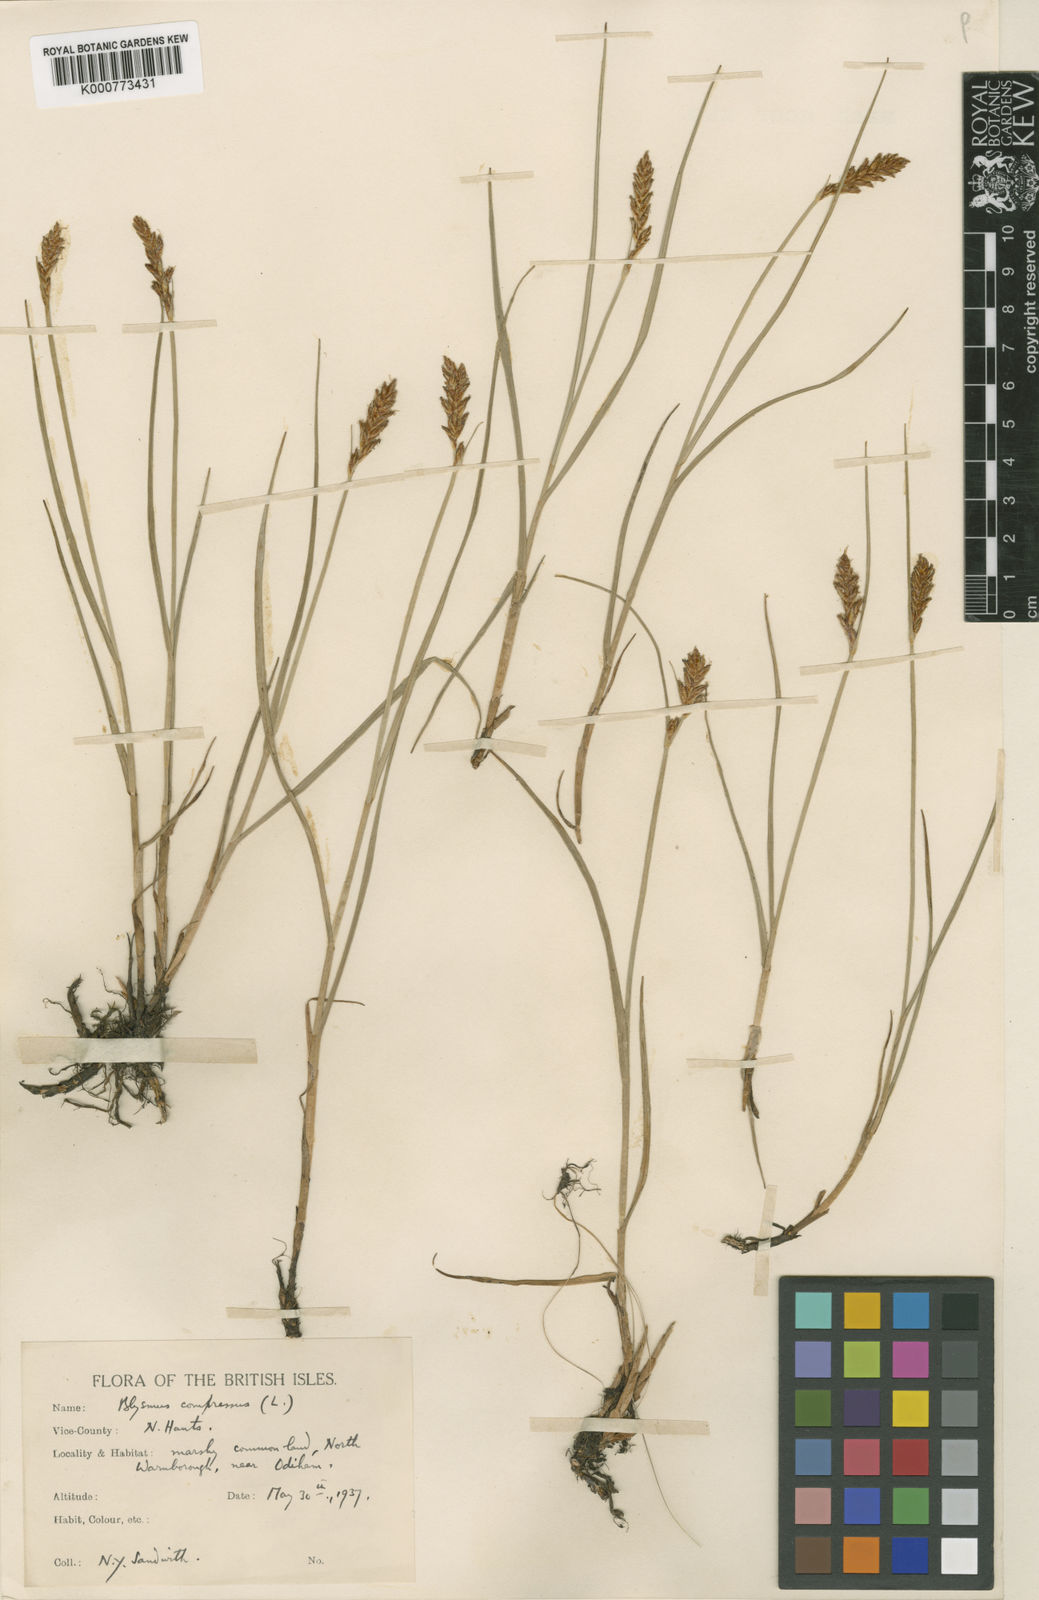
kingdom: Plantae
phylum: Tracheophyta
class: Liliopsida
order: Poales
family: Cyperaceae
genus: Blysmus
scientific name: Blysmus compressus
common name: Flat-sedge
